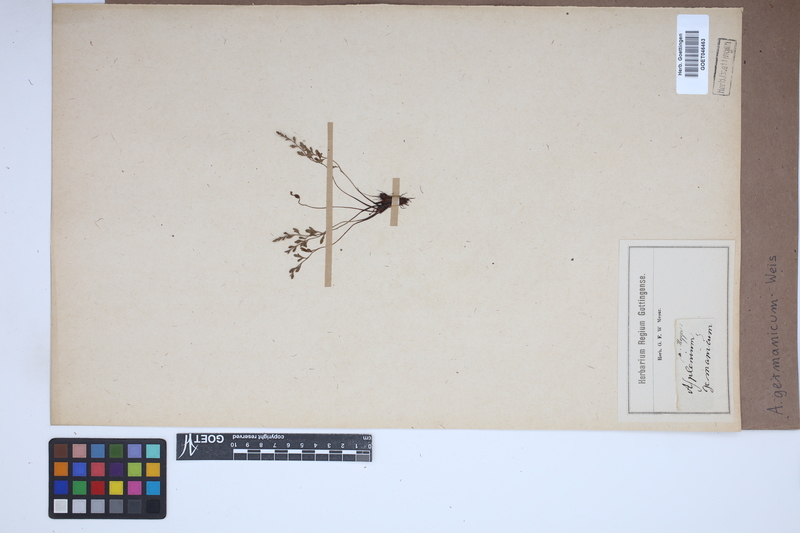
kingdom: Plantae
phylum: Tracheophyta
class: Polypodiopsida
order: Polypodiales
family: Aspleniaceae
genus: Asplenium
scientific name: Asplenium
